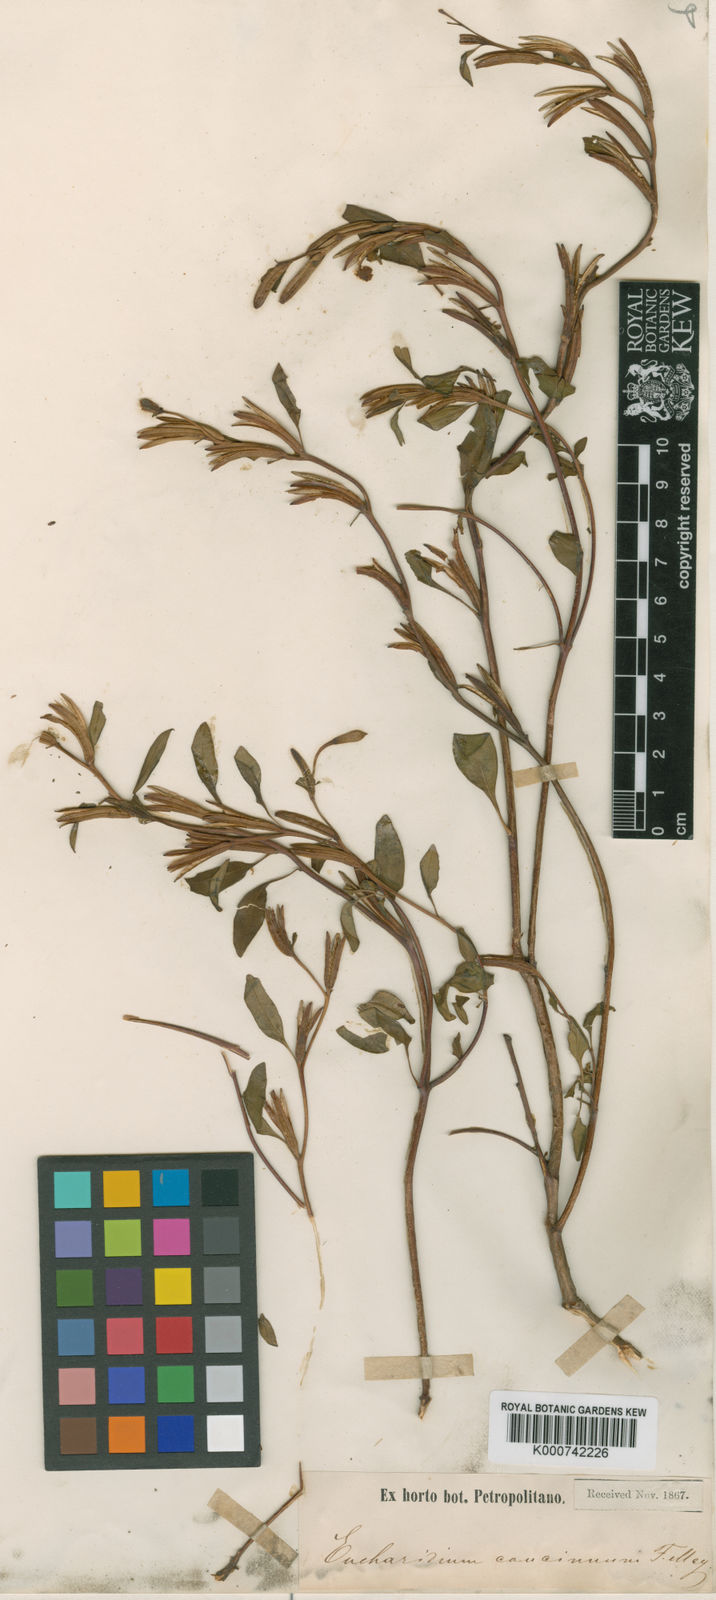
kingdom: Plantae
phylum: Tracheophyta
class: Magnoliopsida
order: Myrtales
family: Onagraceae
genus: Clarkia
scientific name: Clarkia concinna
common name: Red-ribbons
